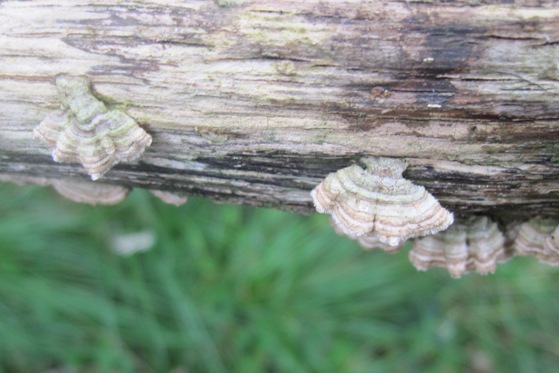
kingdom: Fungi
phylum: Basidiomycota
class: Agaricomycetes
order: Russulales
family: Stereaceae
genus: Stereum
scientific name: Stereum subtomentosum
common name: smuk lædersvamp
